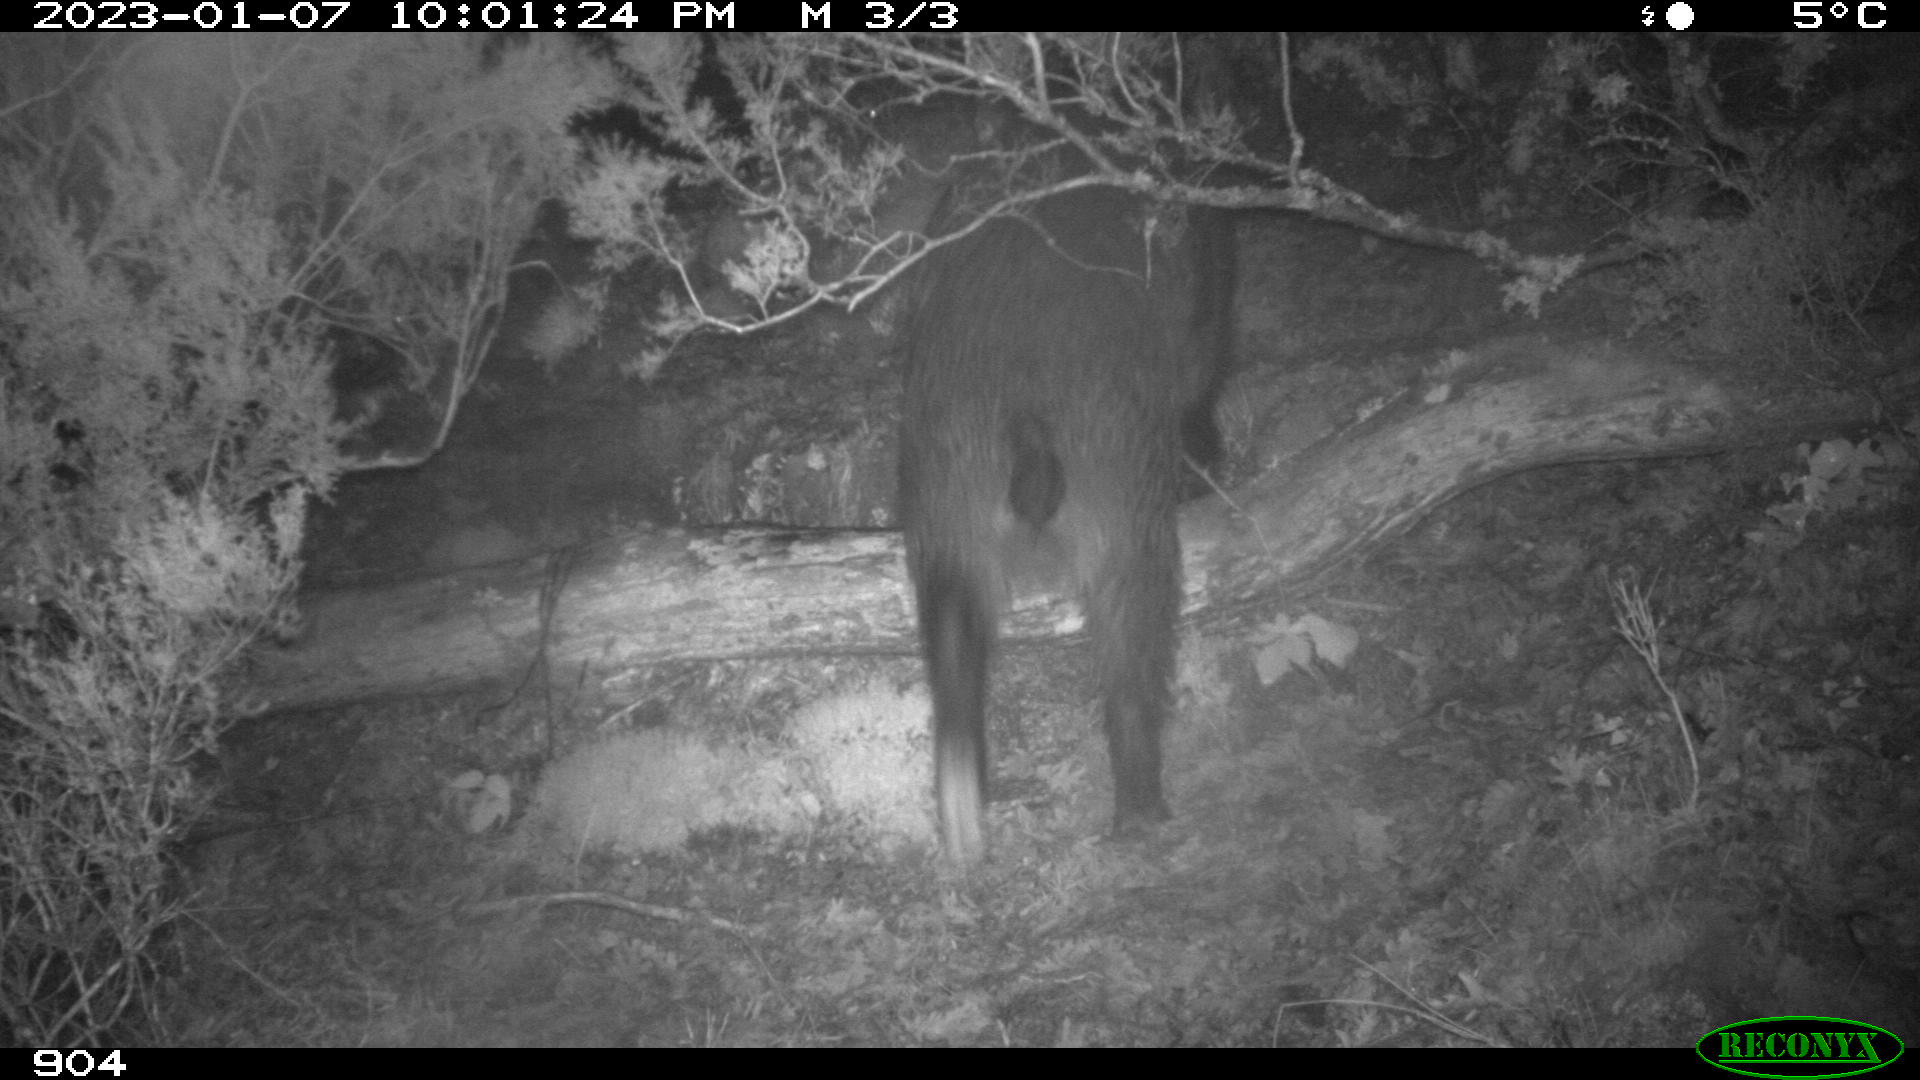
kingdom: Animalia
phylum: Chordata
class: Mammalia
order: Artiodactyla
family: Suidae
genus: Sus
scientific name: Sus scrofa
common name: Wild boar
